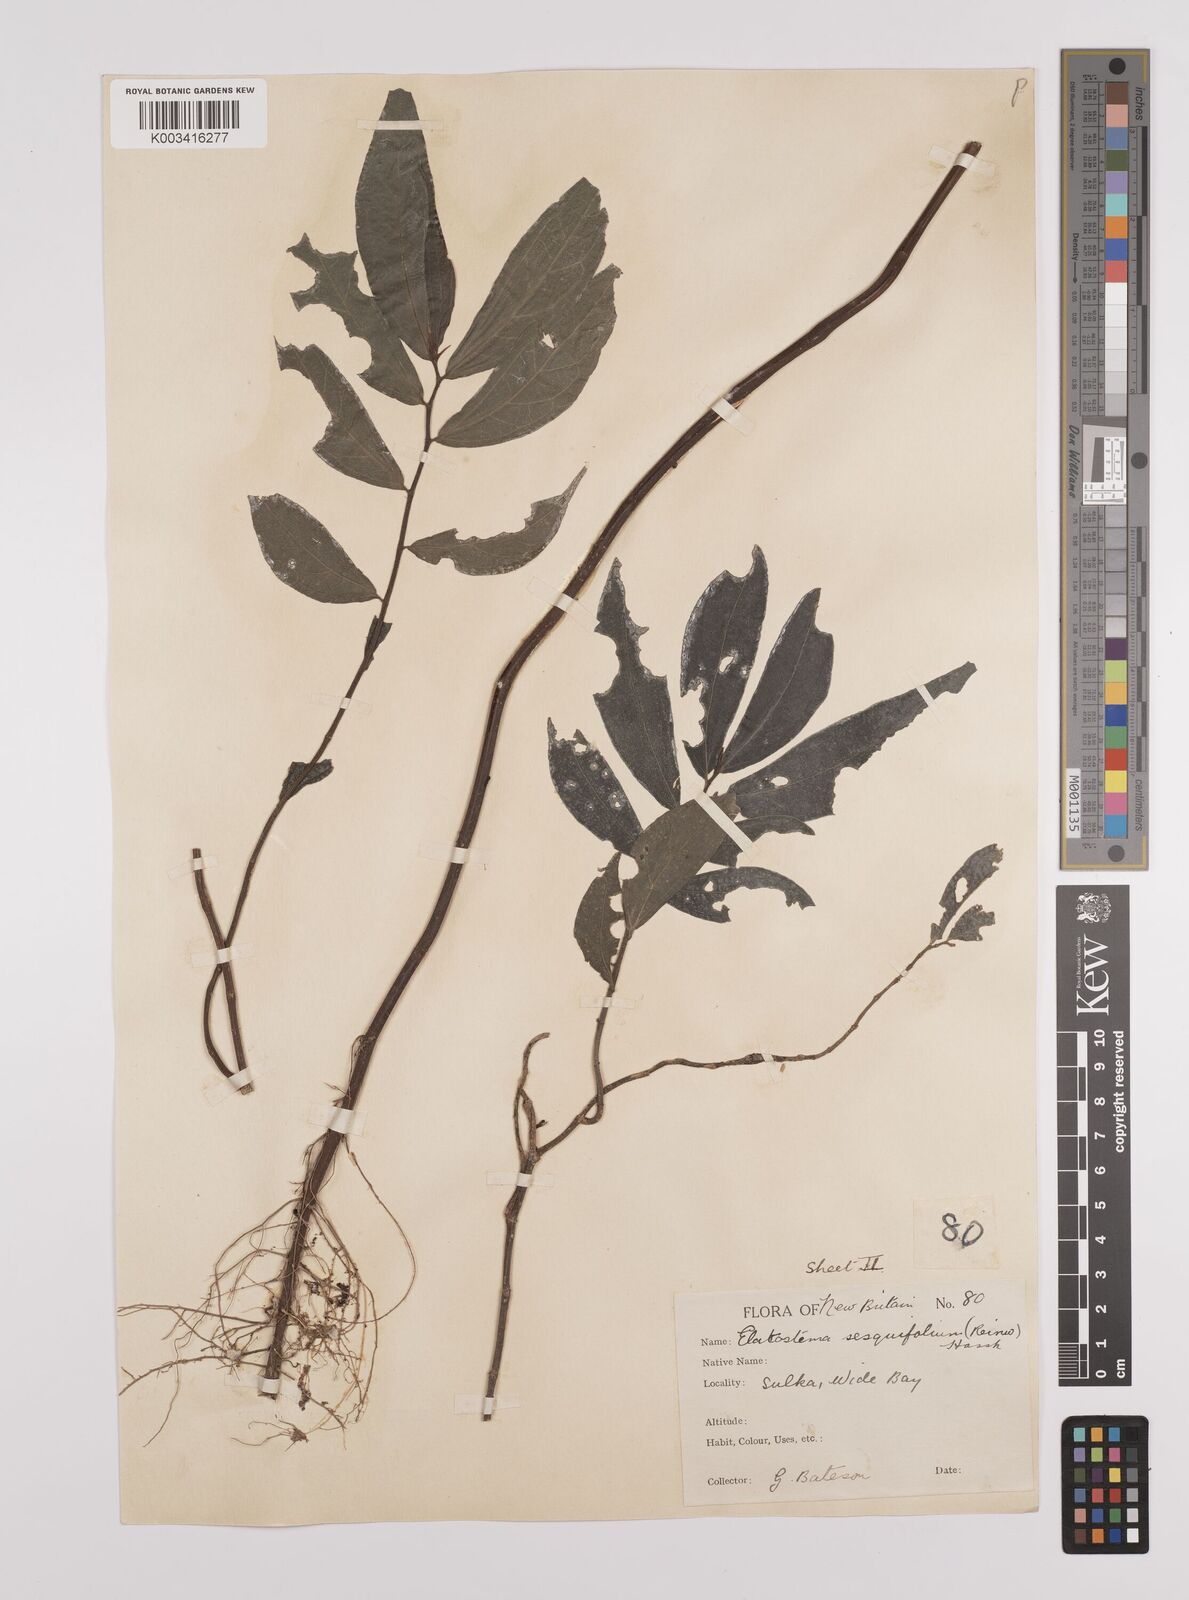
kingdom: Plantae
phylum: Tracheophyta
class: Magnoliopsida
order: Rosales
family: Urticaceae
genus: Elatostema
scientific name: Elatostema integrifolium
